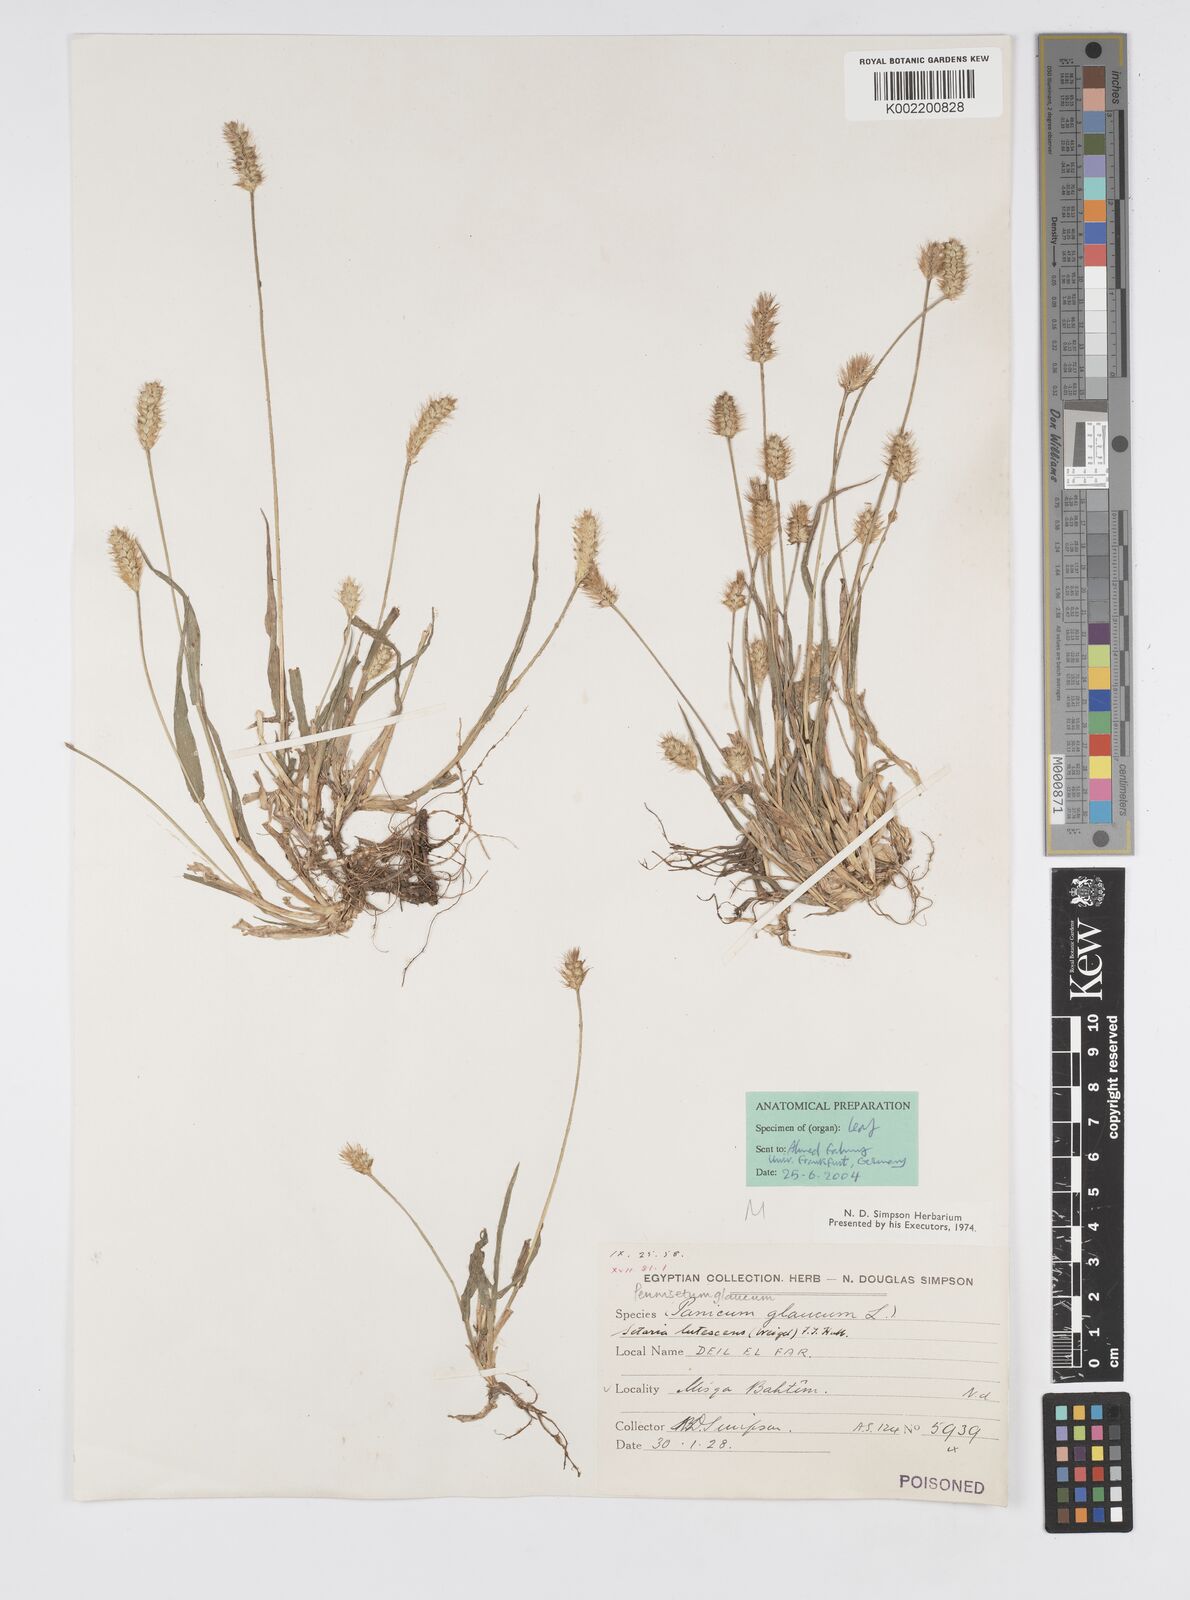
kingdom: Plantae
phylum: Tracheophyta
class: Liliopsida
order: Poales
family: Poaceae
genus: Cenchrus
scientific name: Cenchrus americanus
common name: Pearl millet
